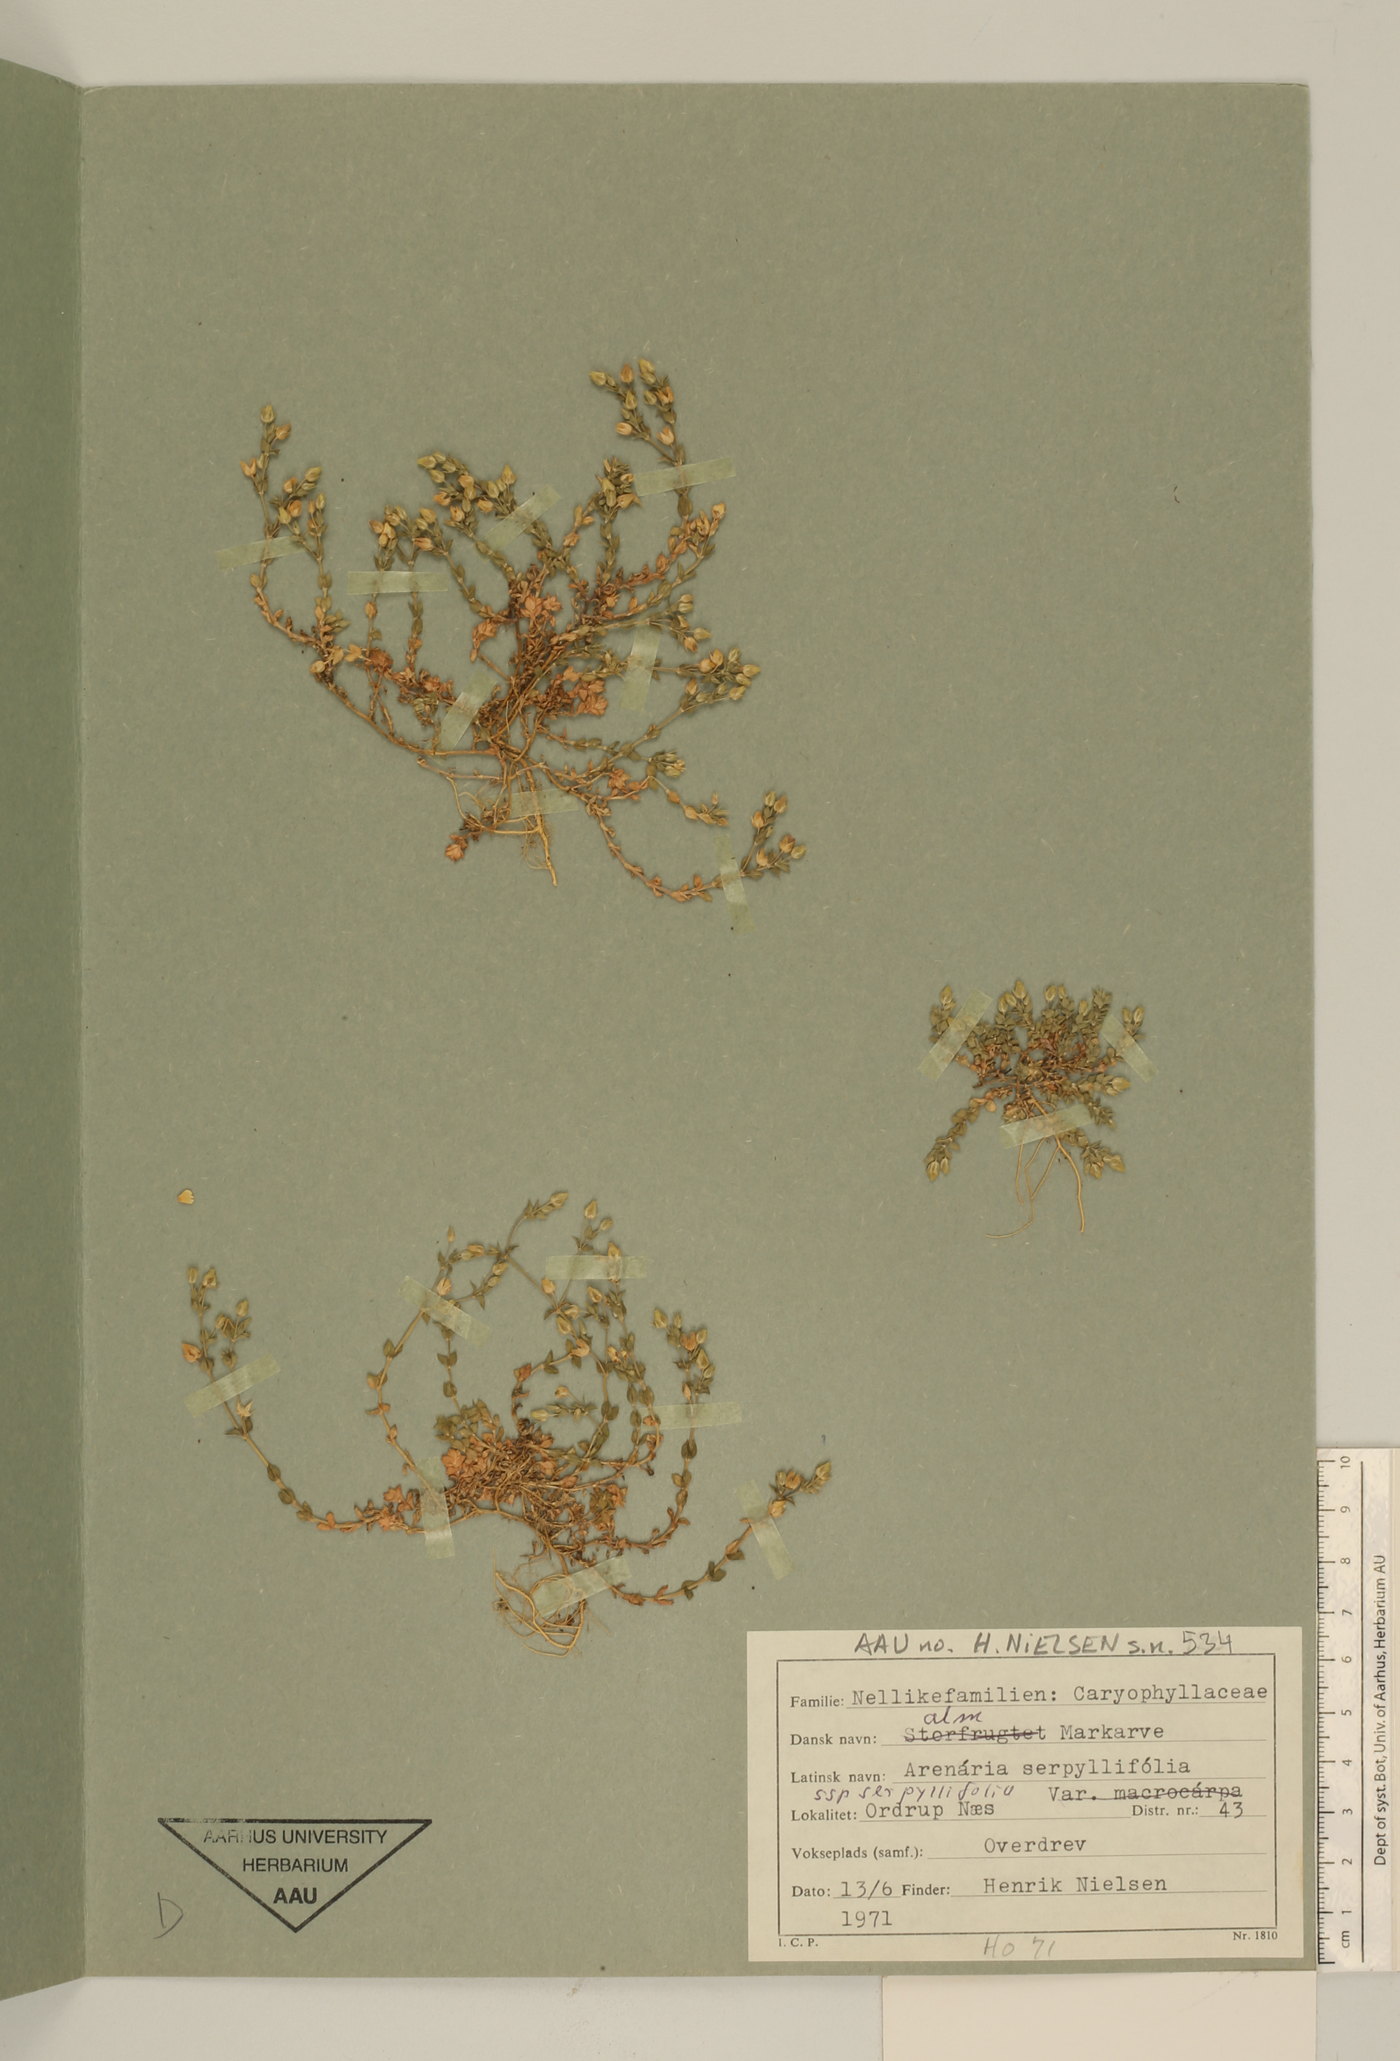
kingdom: Plantae
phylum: Tracheophyta
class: Magnoliopsida
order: Caryophyllales
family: Caryophyllaceae
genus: Arenaria
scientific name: Arenaria serpyllifolia
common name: Thyme-leaved sandwort
